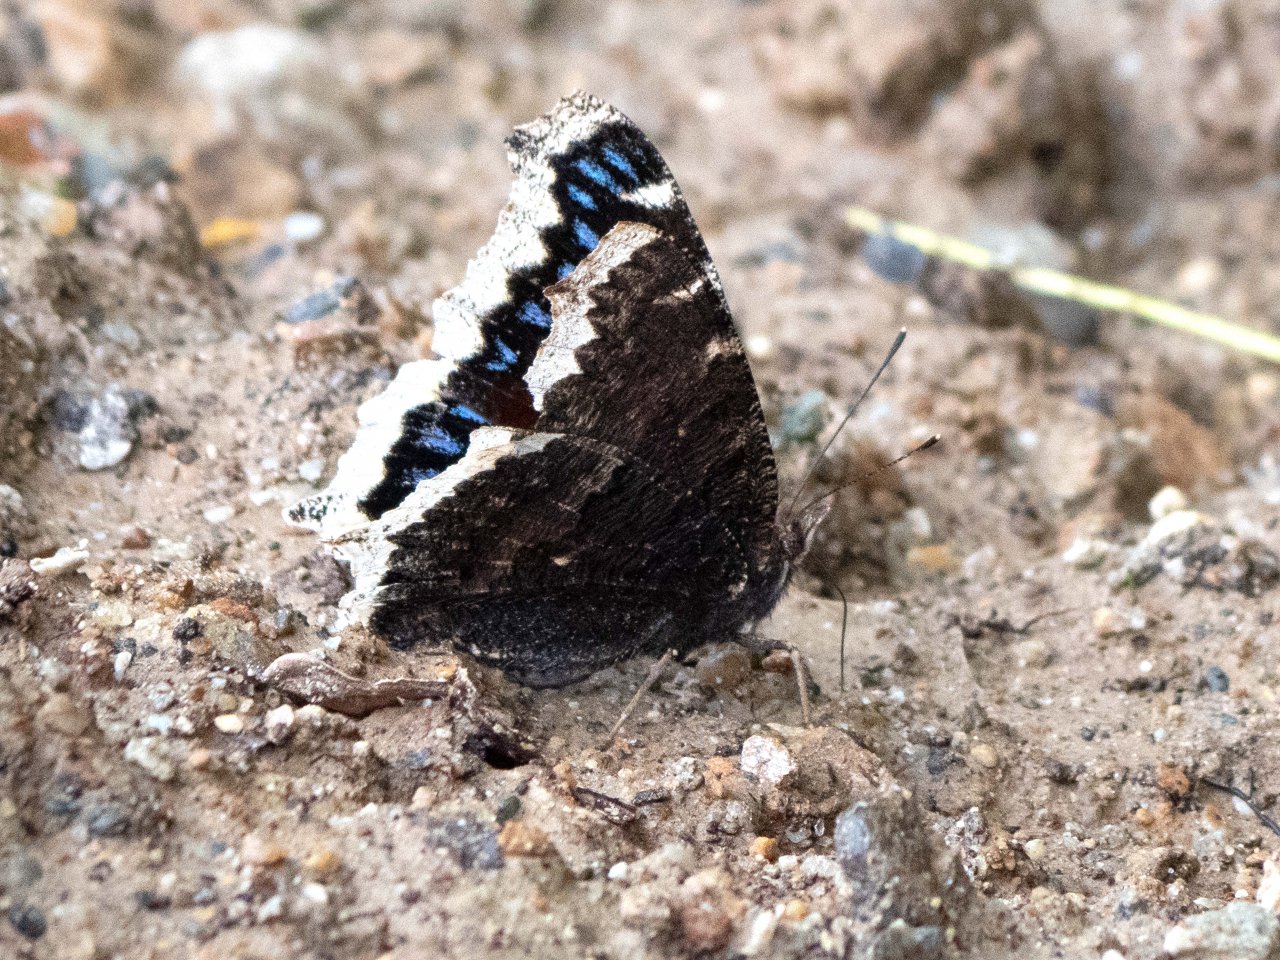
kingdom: Animalia
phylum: Arthropoda
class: Insecta
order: Lepidoptera
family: Nymphalidae
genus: Nymphalis
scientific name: Nymphalis antiopa
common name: Mourning Cloak
